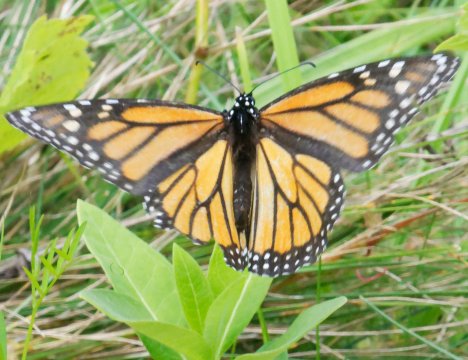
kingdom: Animalia
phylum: Arthropoda
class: Insecta
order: Lepidoptera
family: Nymphalidae
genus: Danaus
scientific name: Danaus plexippus
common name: Monarch
